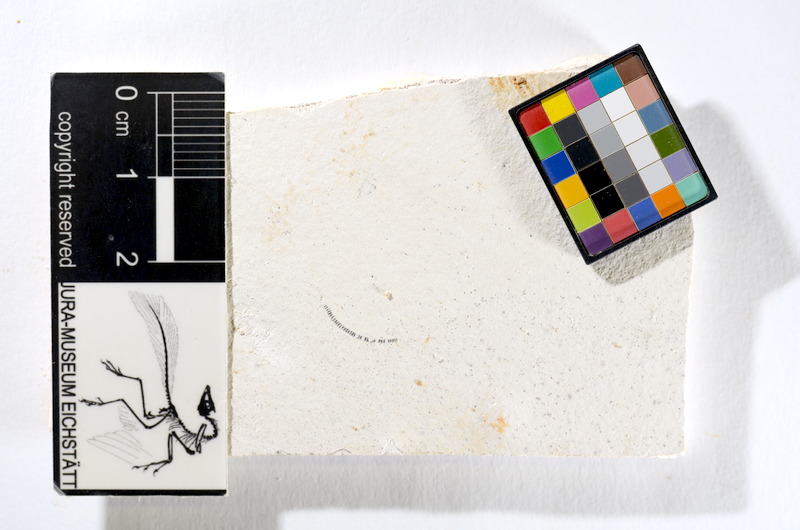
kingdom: Animalia
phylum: Chordata
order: Salmoniformes
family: Orthogonikleithridae
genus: Orthogonikleithrus
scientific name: Orthogonikleithrus hoelli
